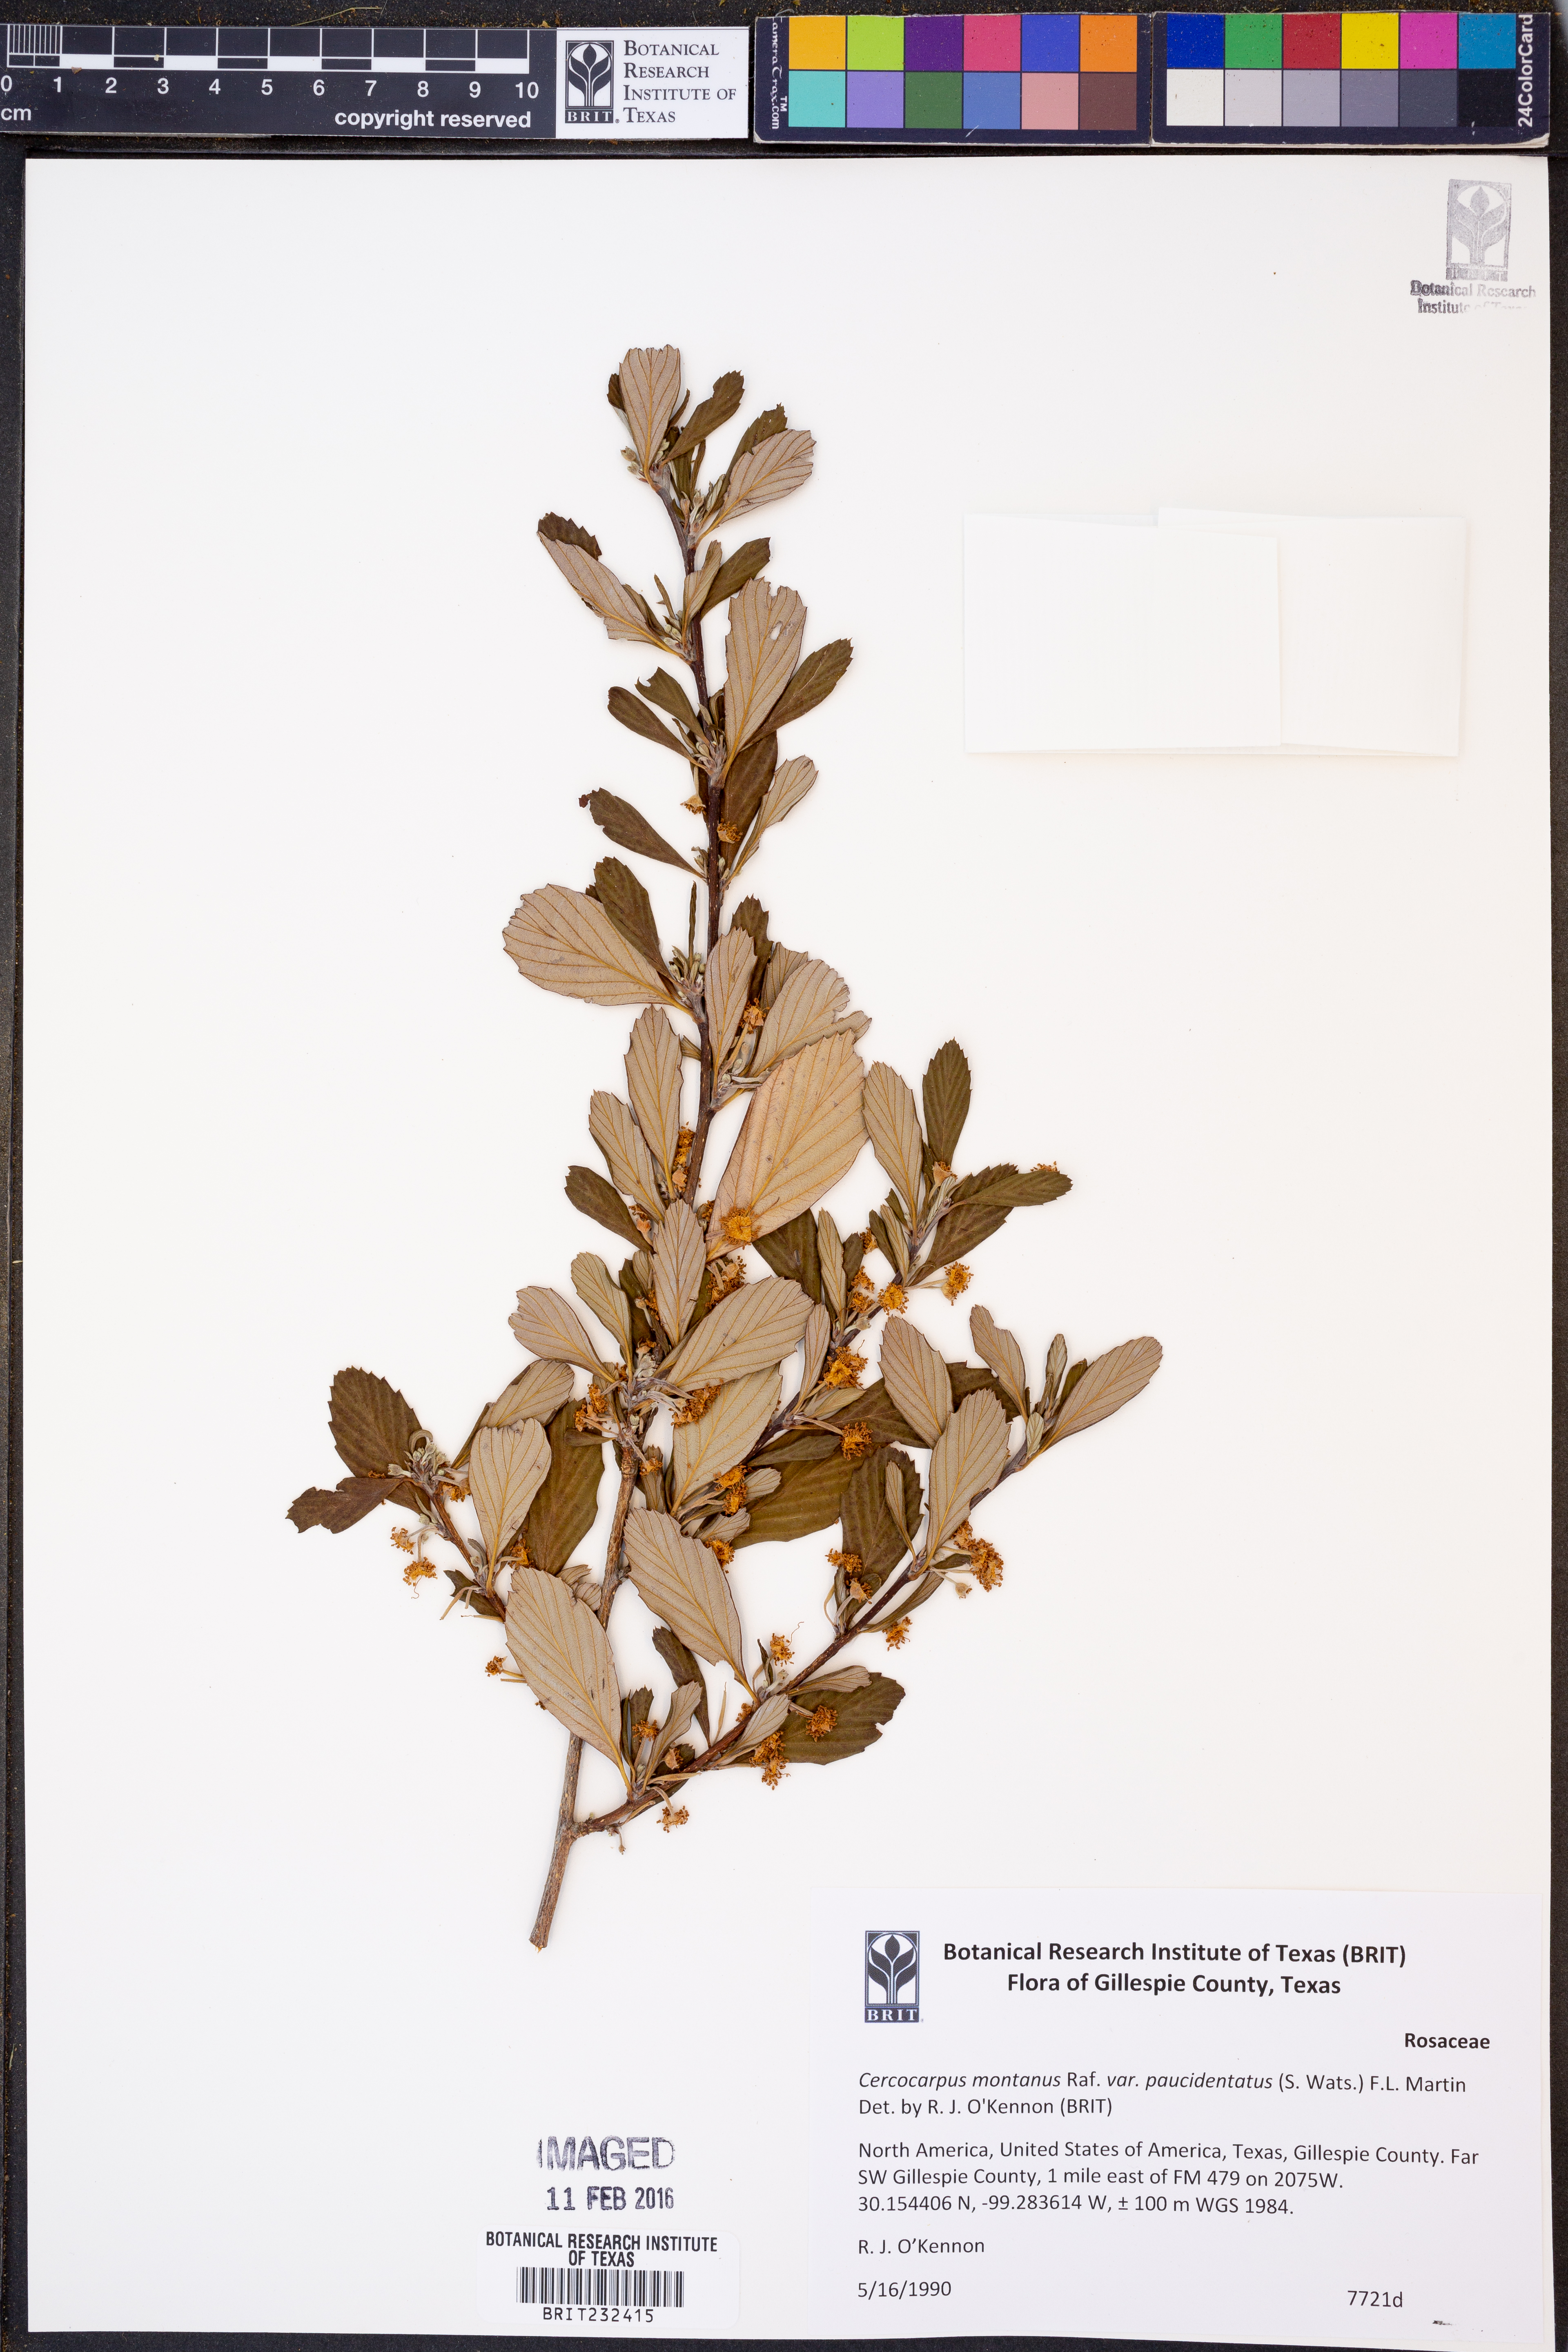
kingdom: Plantae
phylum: Tracheophyta
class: Magnoliopsida
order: Rosales
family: Rosaceae
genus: Cercocarpus
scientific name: Cercocarpus breviflorus
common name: Wright's mountain-mahogany
